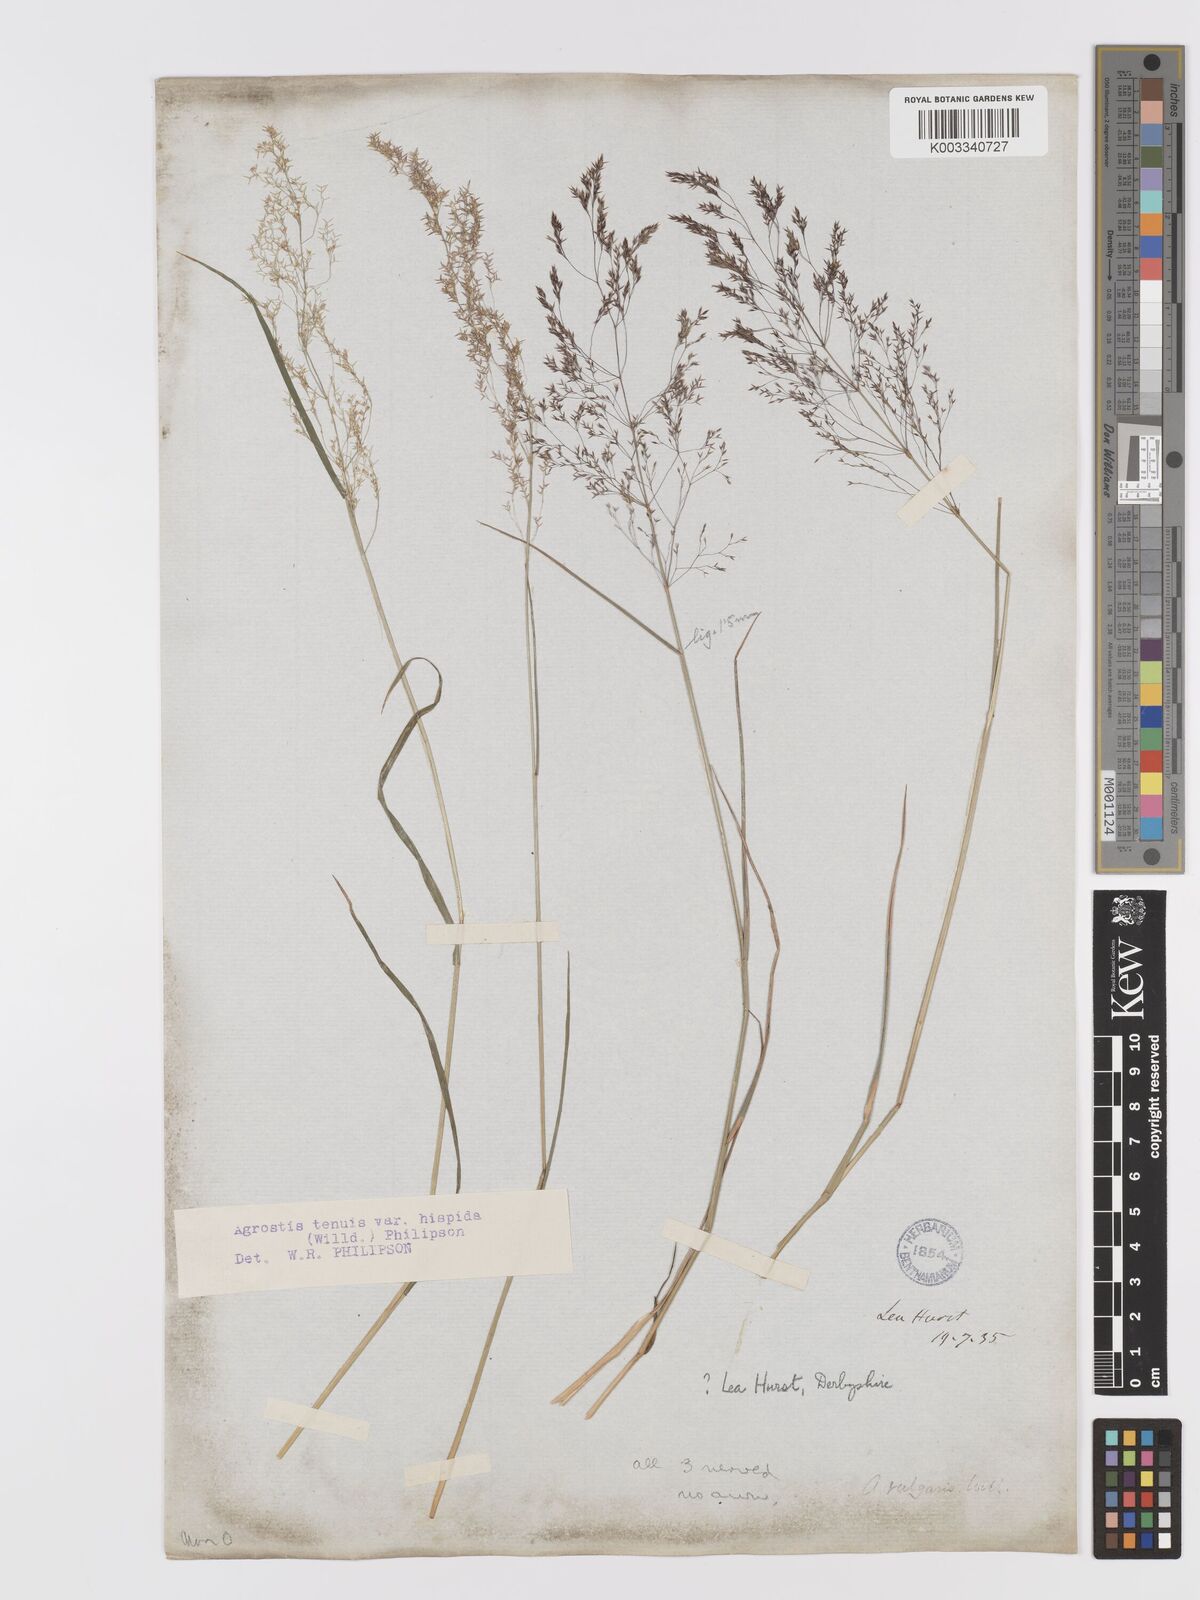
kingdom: Plantae
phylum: Tracheophyta
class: Liliopsida
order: Poales
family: Poaceae
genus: Agrostis
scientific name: Agrostis capillaris
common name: Colonial bentgrass
